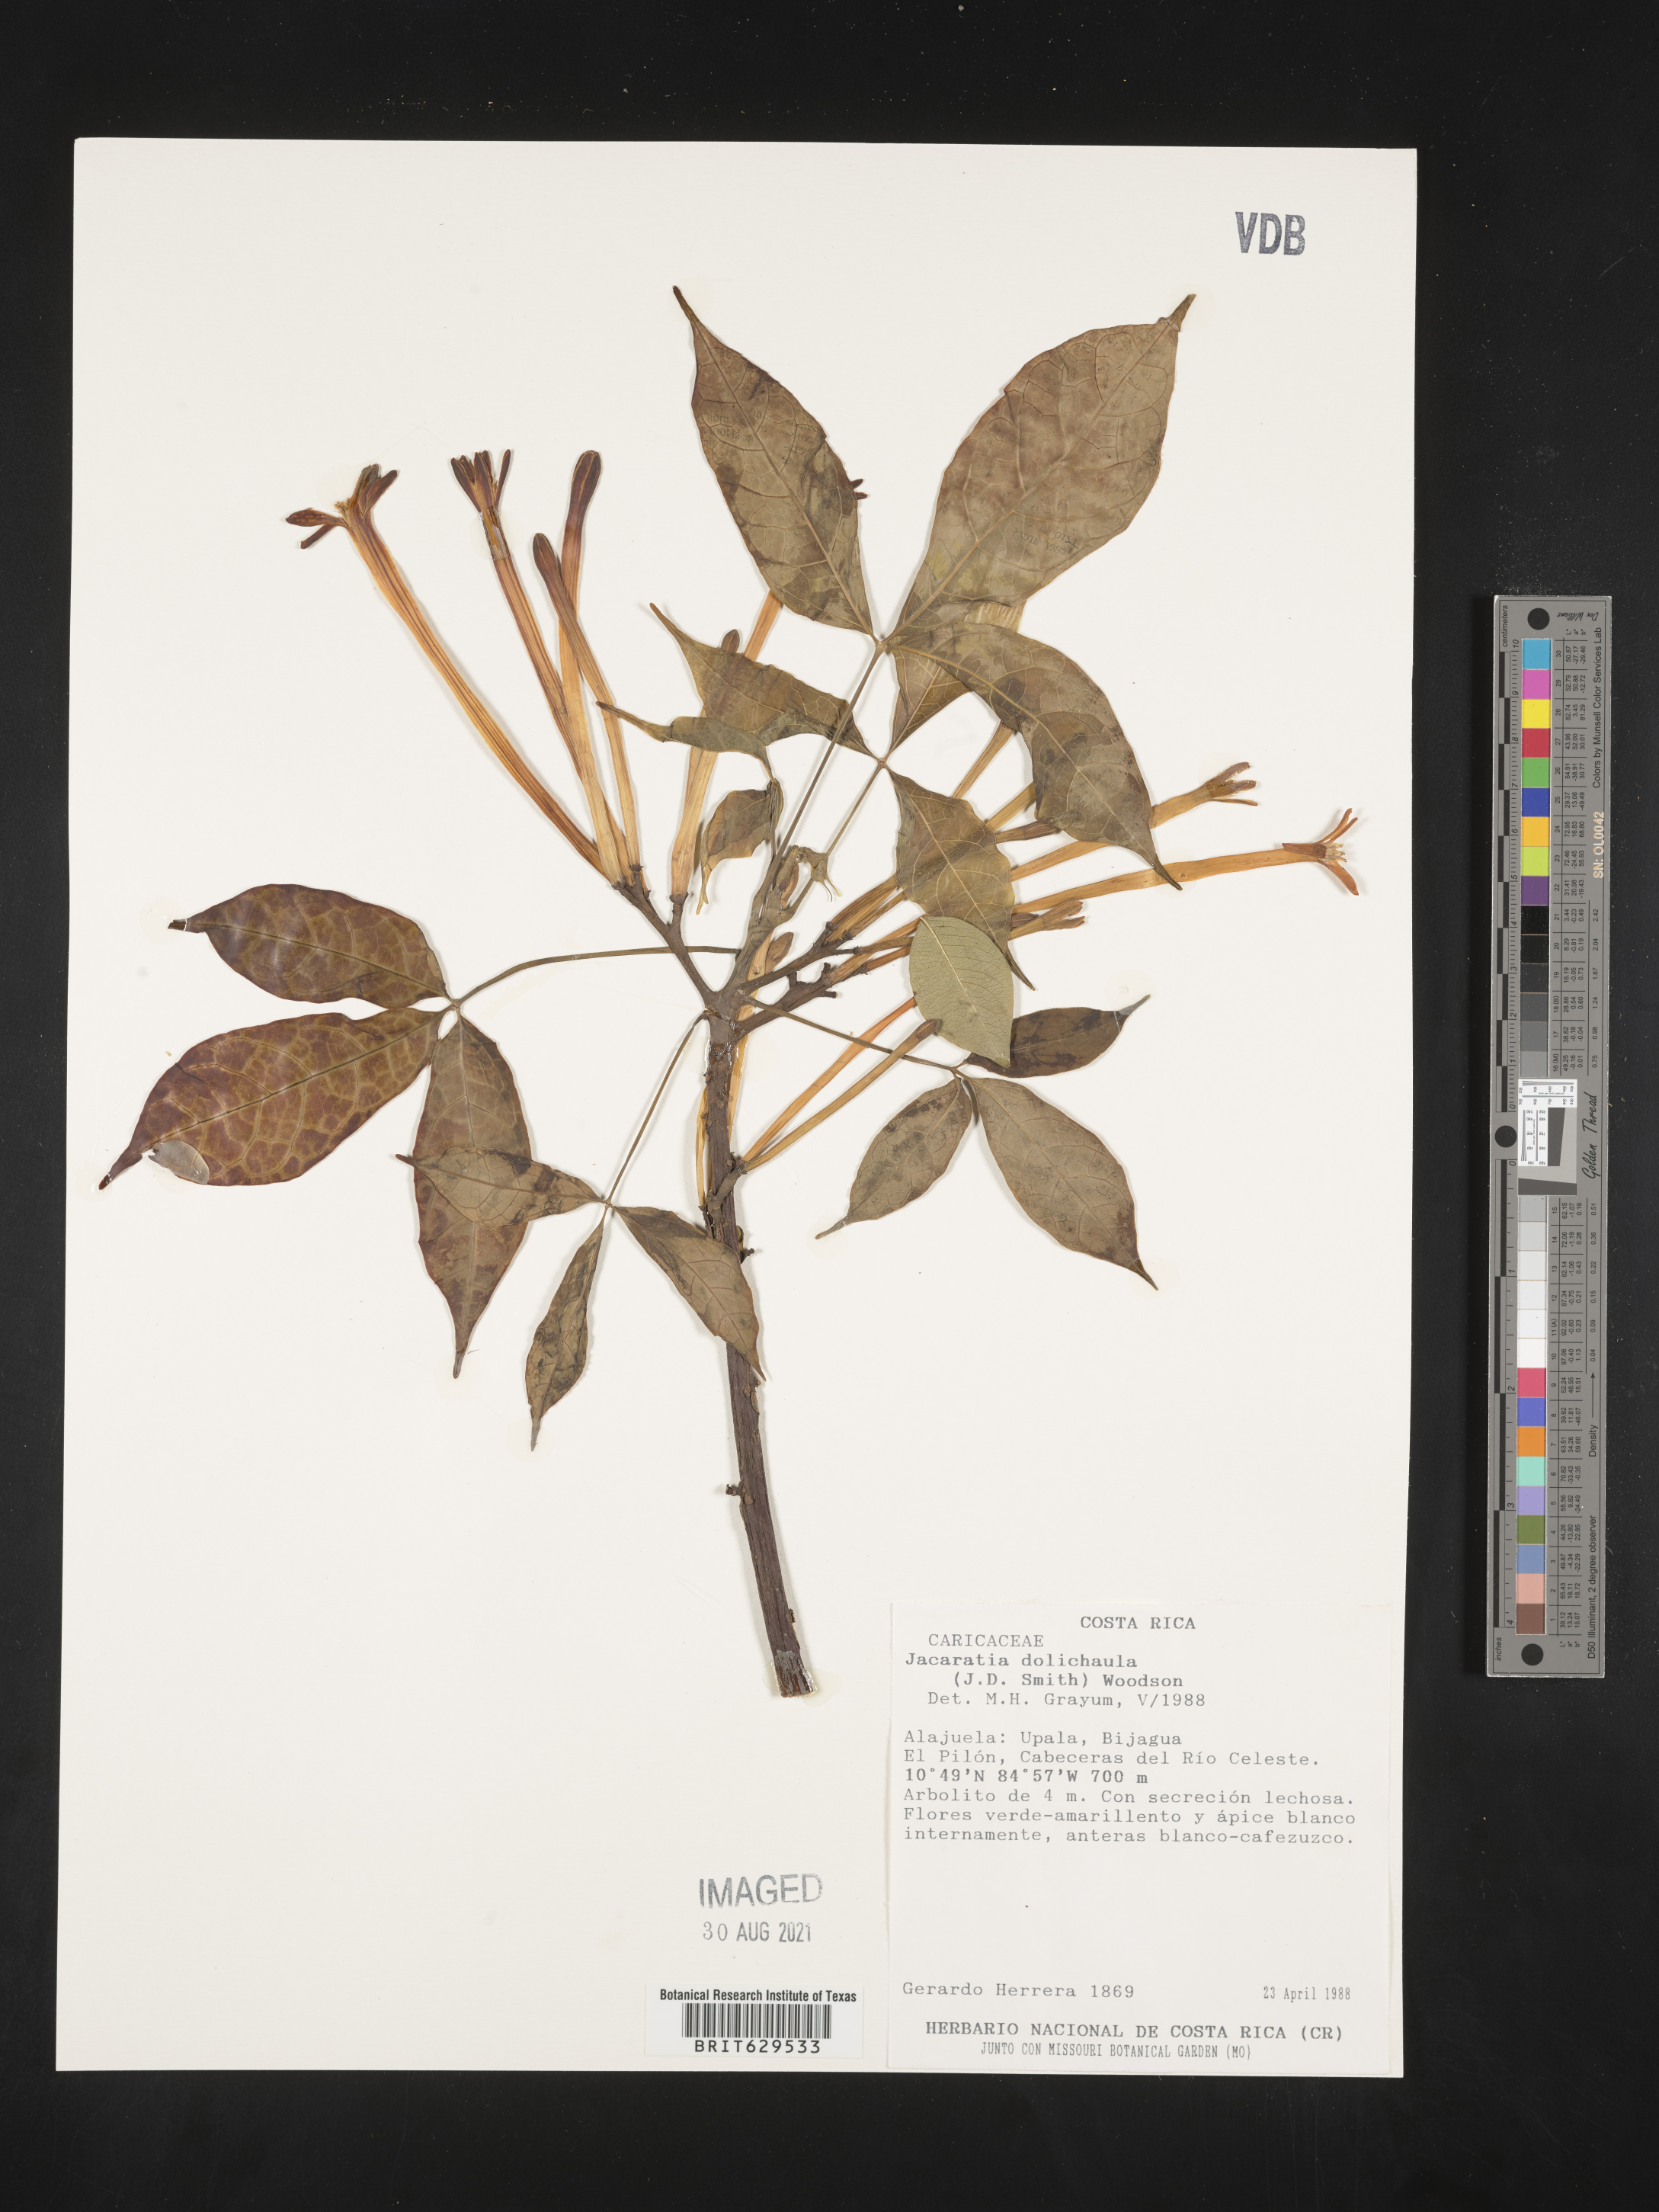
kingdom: Plantae
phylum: Tracheophyta
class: Magnoliopsida
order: Brassicales
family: Caricaceae
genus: Jacaratia
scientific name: Jacaratia dolichaula
